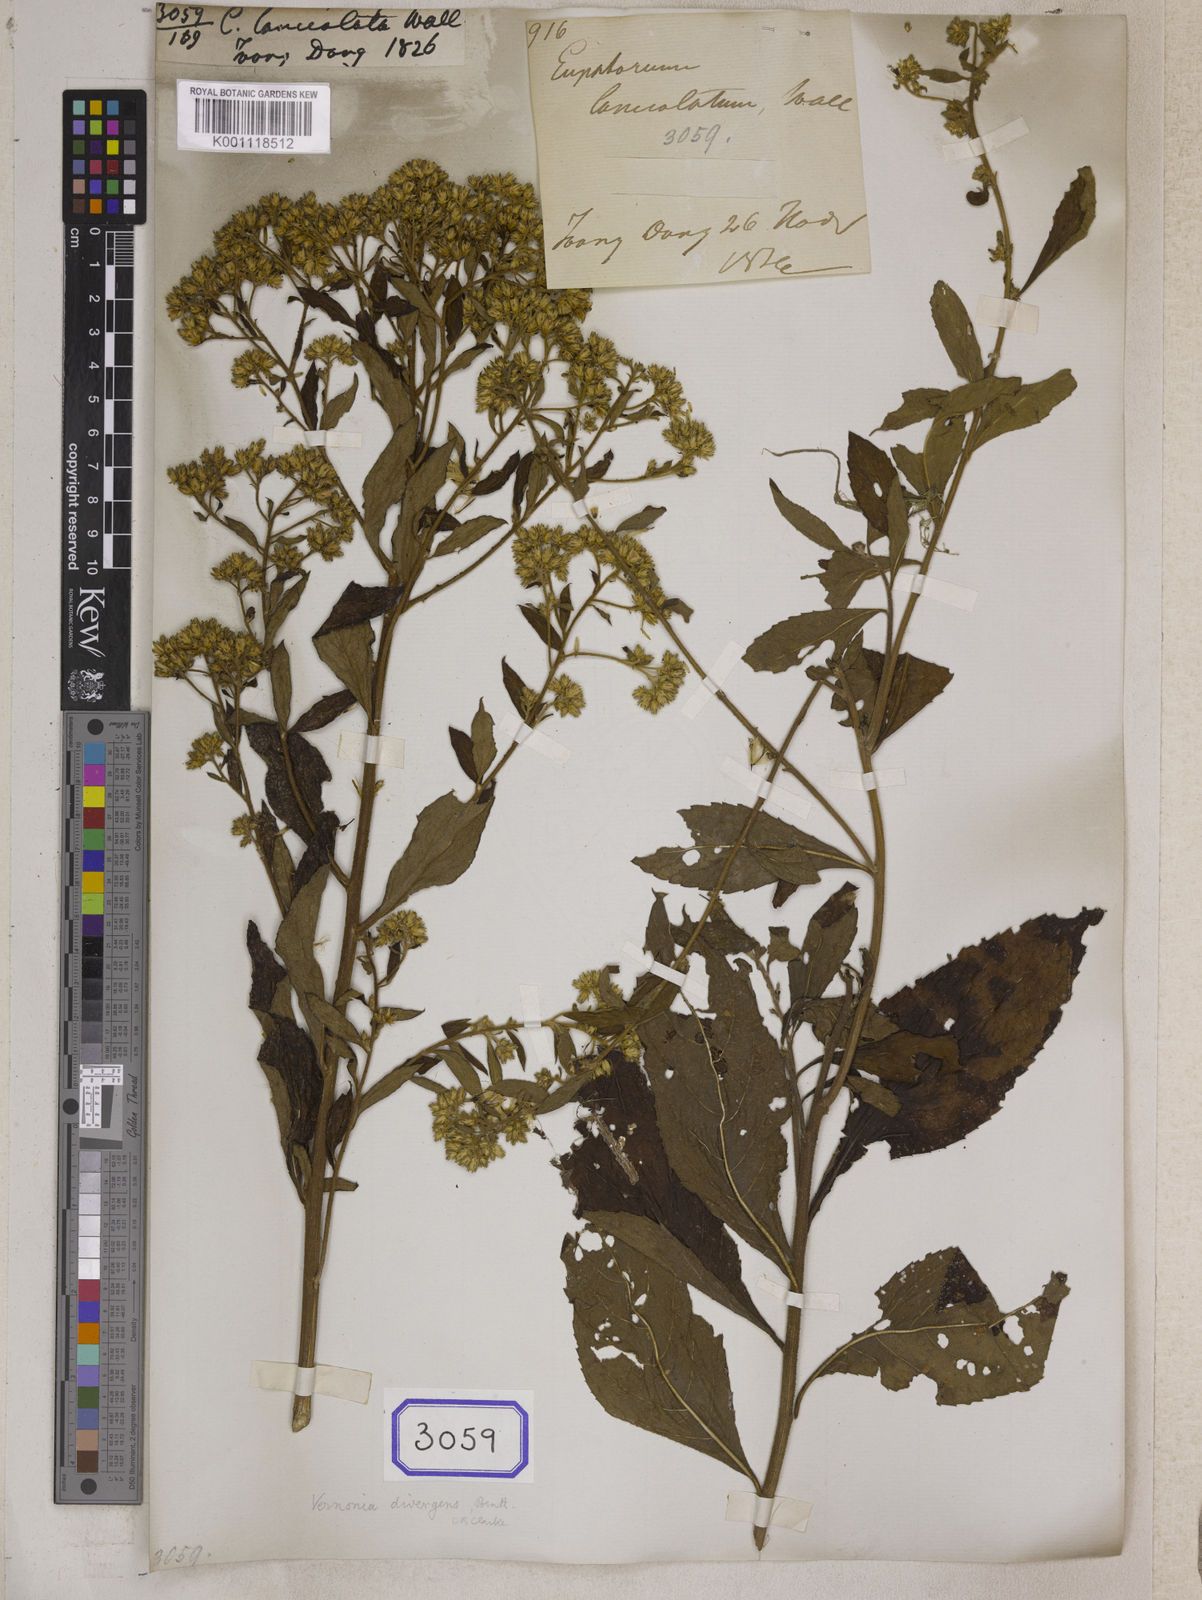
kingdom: Plantae
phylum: Tracheophyta
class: Magnoliopsida
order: Asterales
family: Asteraceae
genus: Acilepis
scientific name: Acilepis divergens
